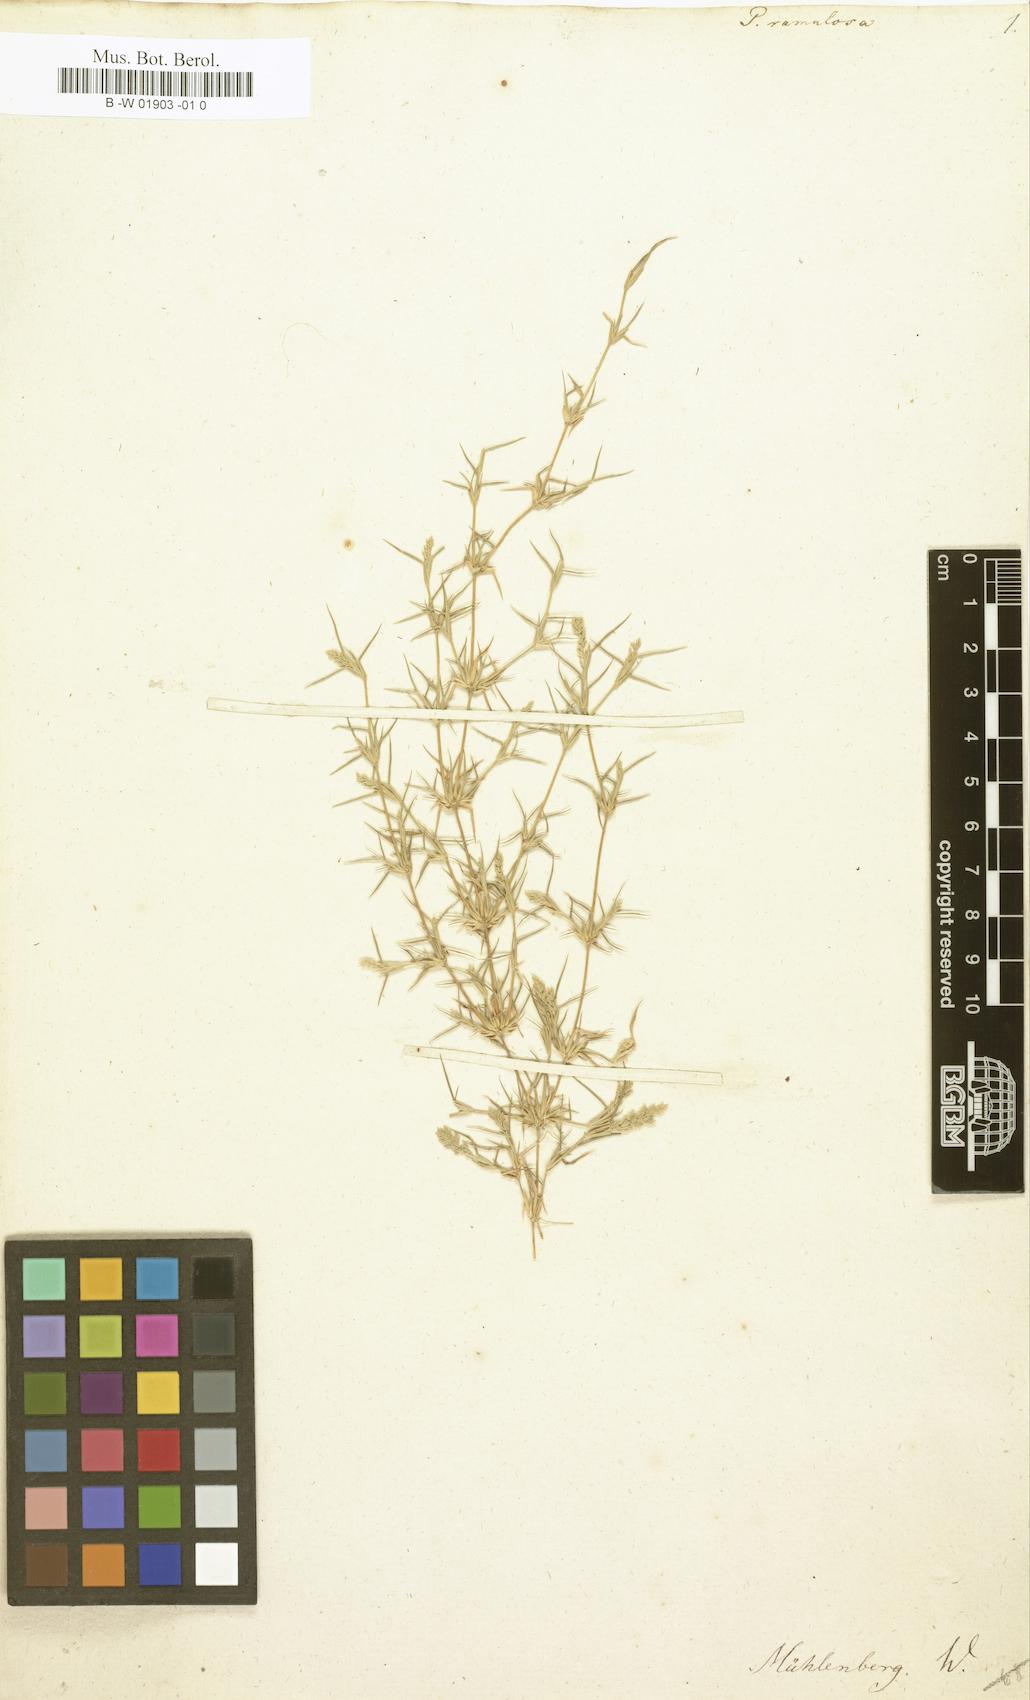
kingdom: Plantae
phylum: Tracheophyta
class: Liliopsida
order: Poales
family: Poaceae
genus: Aeluropus
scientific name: Aeluropus lagopoides
